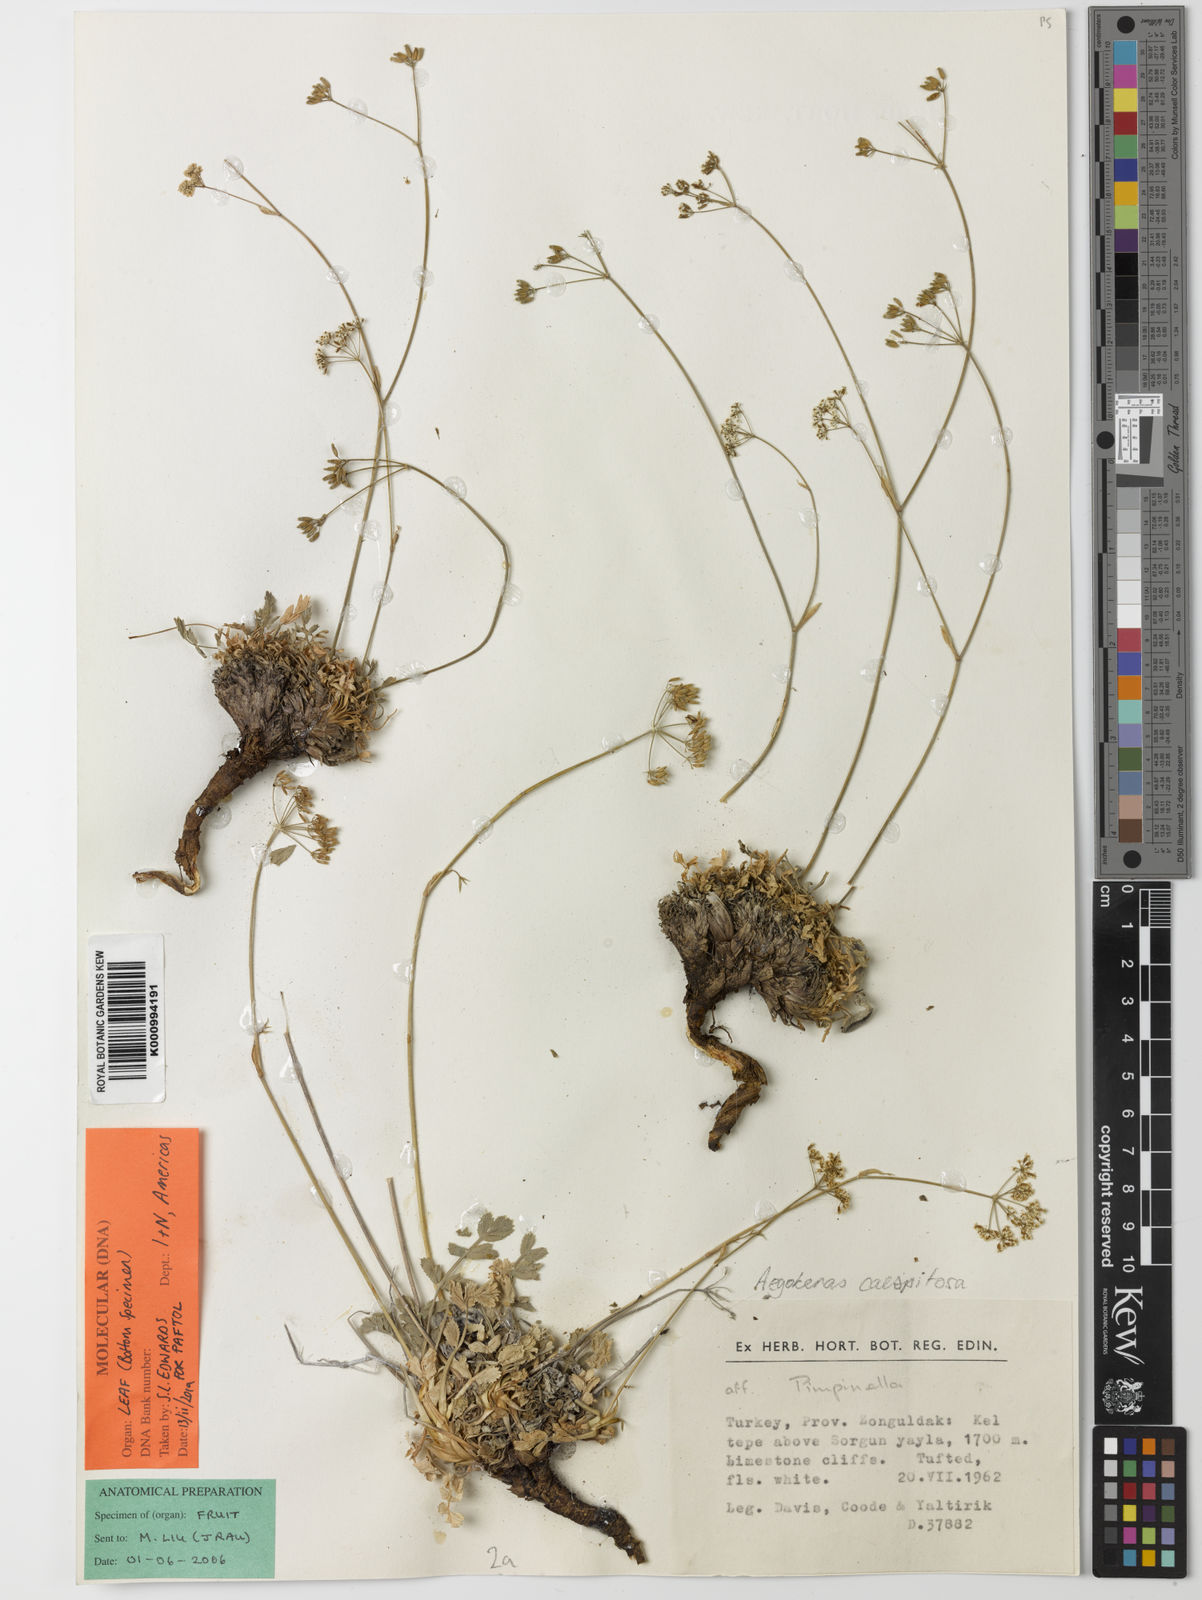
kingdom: Plantae
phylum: Tracheophyta
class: Magnoliopsida
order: Apiales
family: Apiaceae
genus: Aegokeras
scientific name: Aegokeras caespitosa
